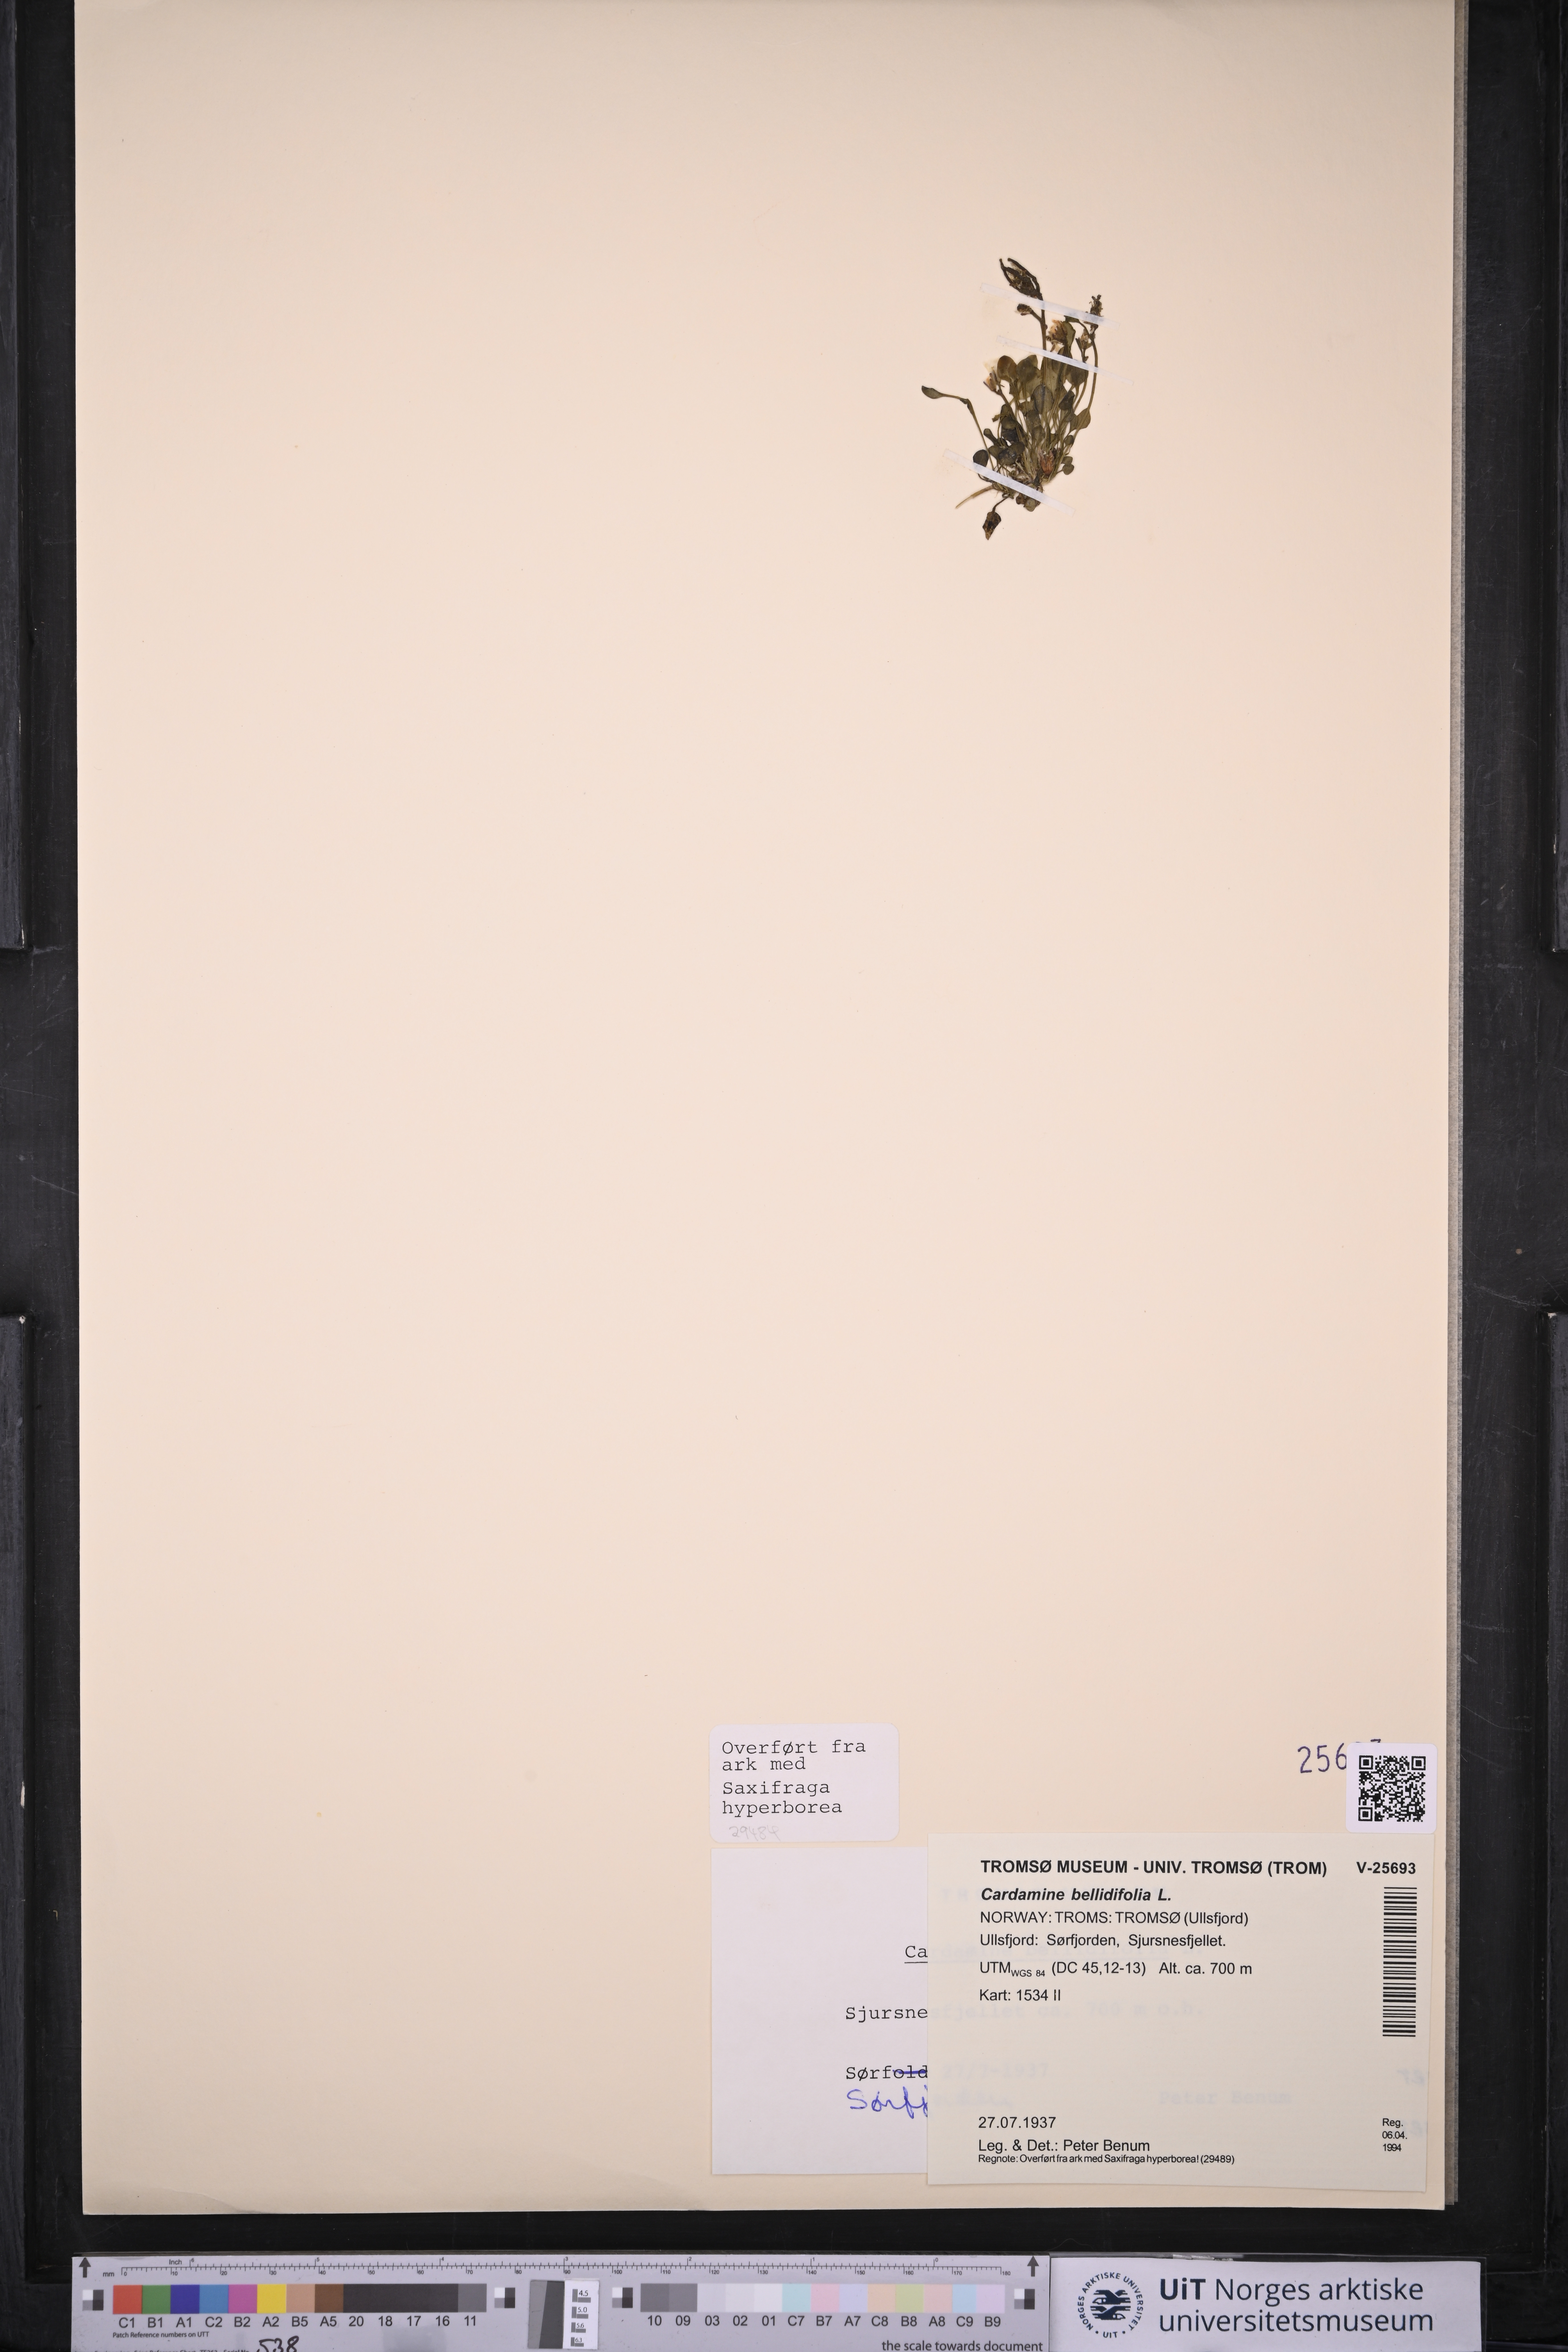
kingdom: Plantae
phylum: Tracheophyta
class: Magnoliopsida
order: Brassicales
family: Brassicaceae
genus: Cardamine
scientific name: Cardamine bellidifolia
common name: Alpine bittercress
